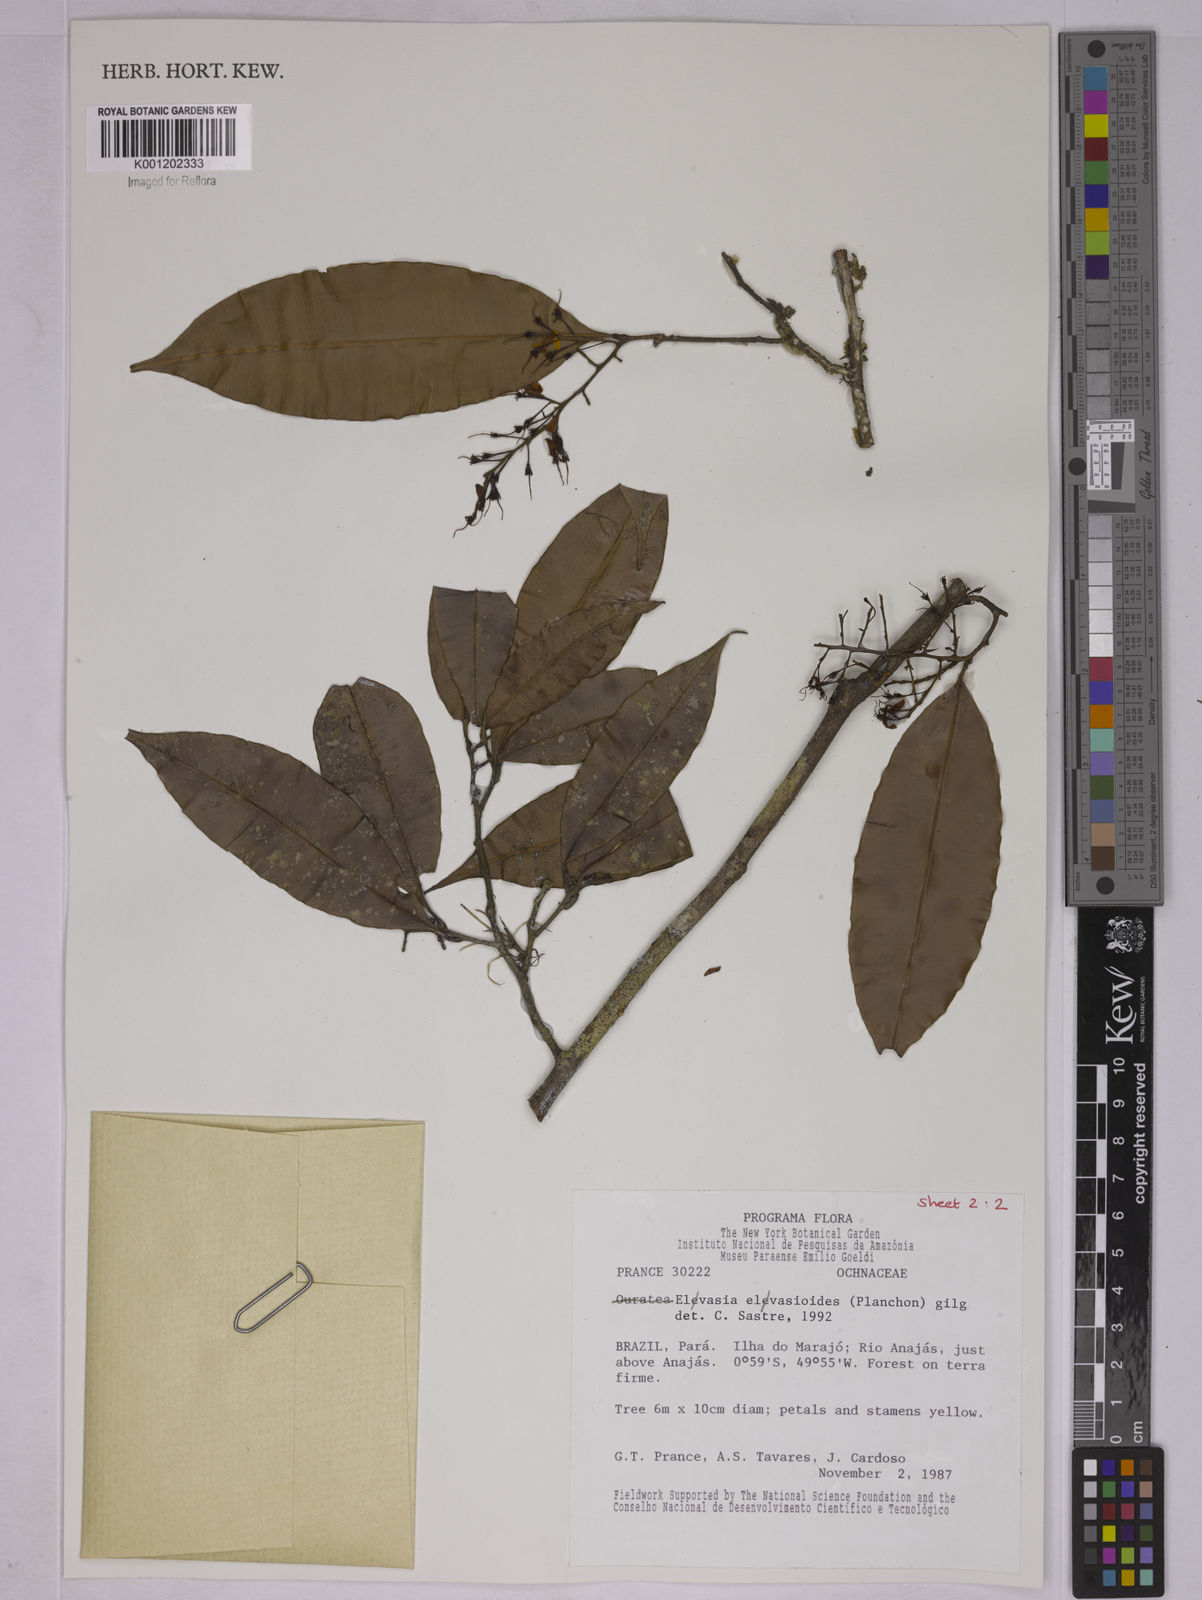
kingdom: Plantae
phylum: Tracheophyta
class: Magnoliopsida
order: Malpighiales
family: Ochnaceae
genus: Elvasia
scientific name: Elvasia elvasioides
